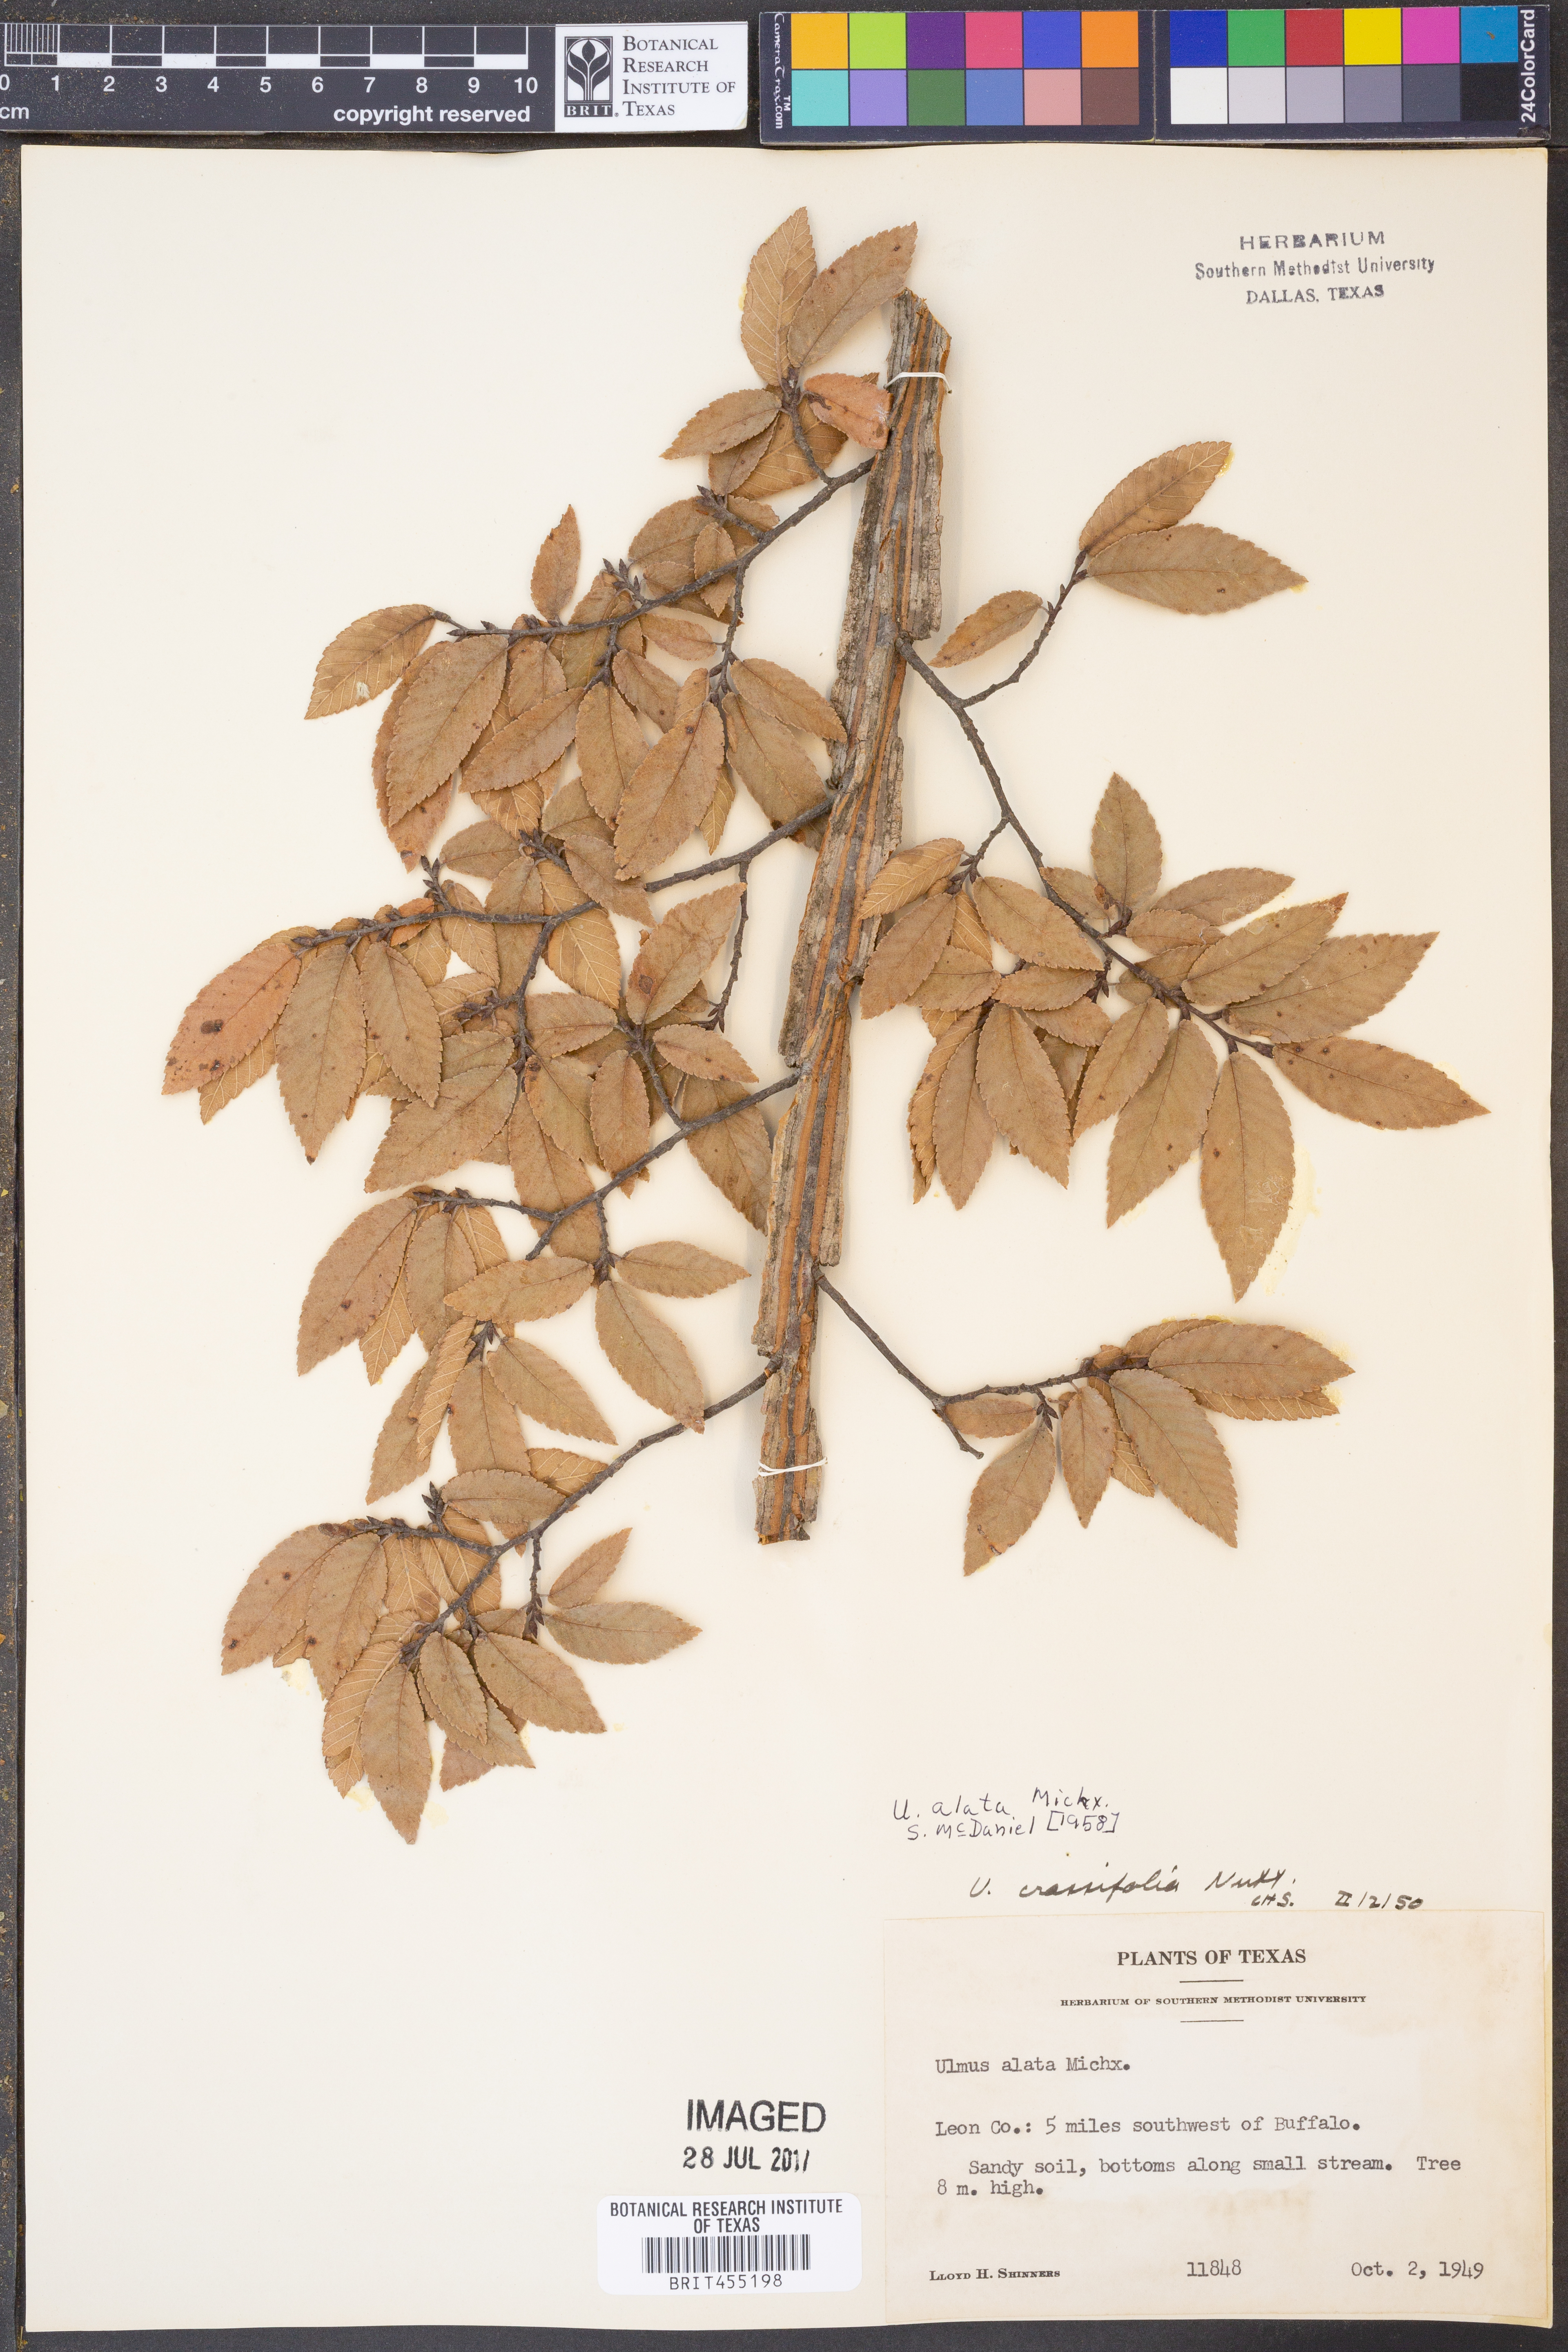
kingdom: Plantae
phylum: Tracheophyta
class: Magnoliopsida
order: Rosales
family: Ulmaceae
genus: Ulmus
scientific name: Ulmus alata
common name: Winged elm
